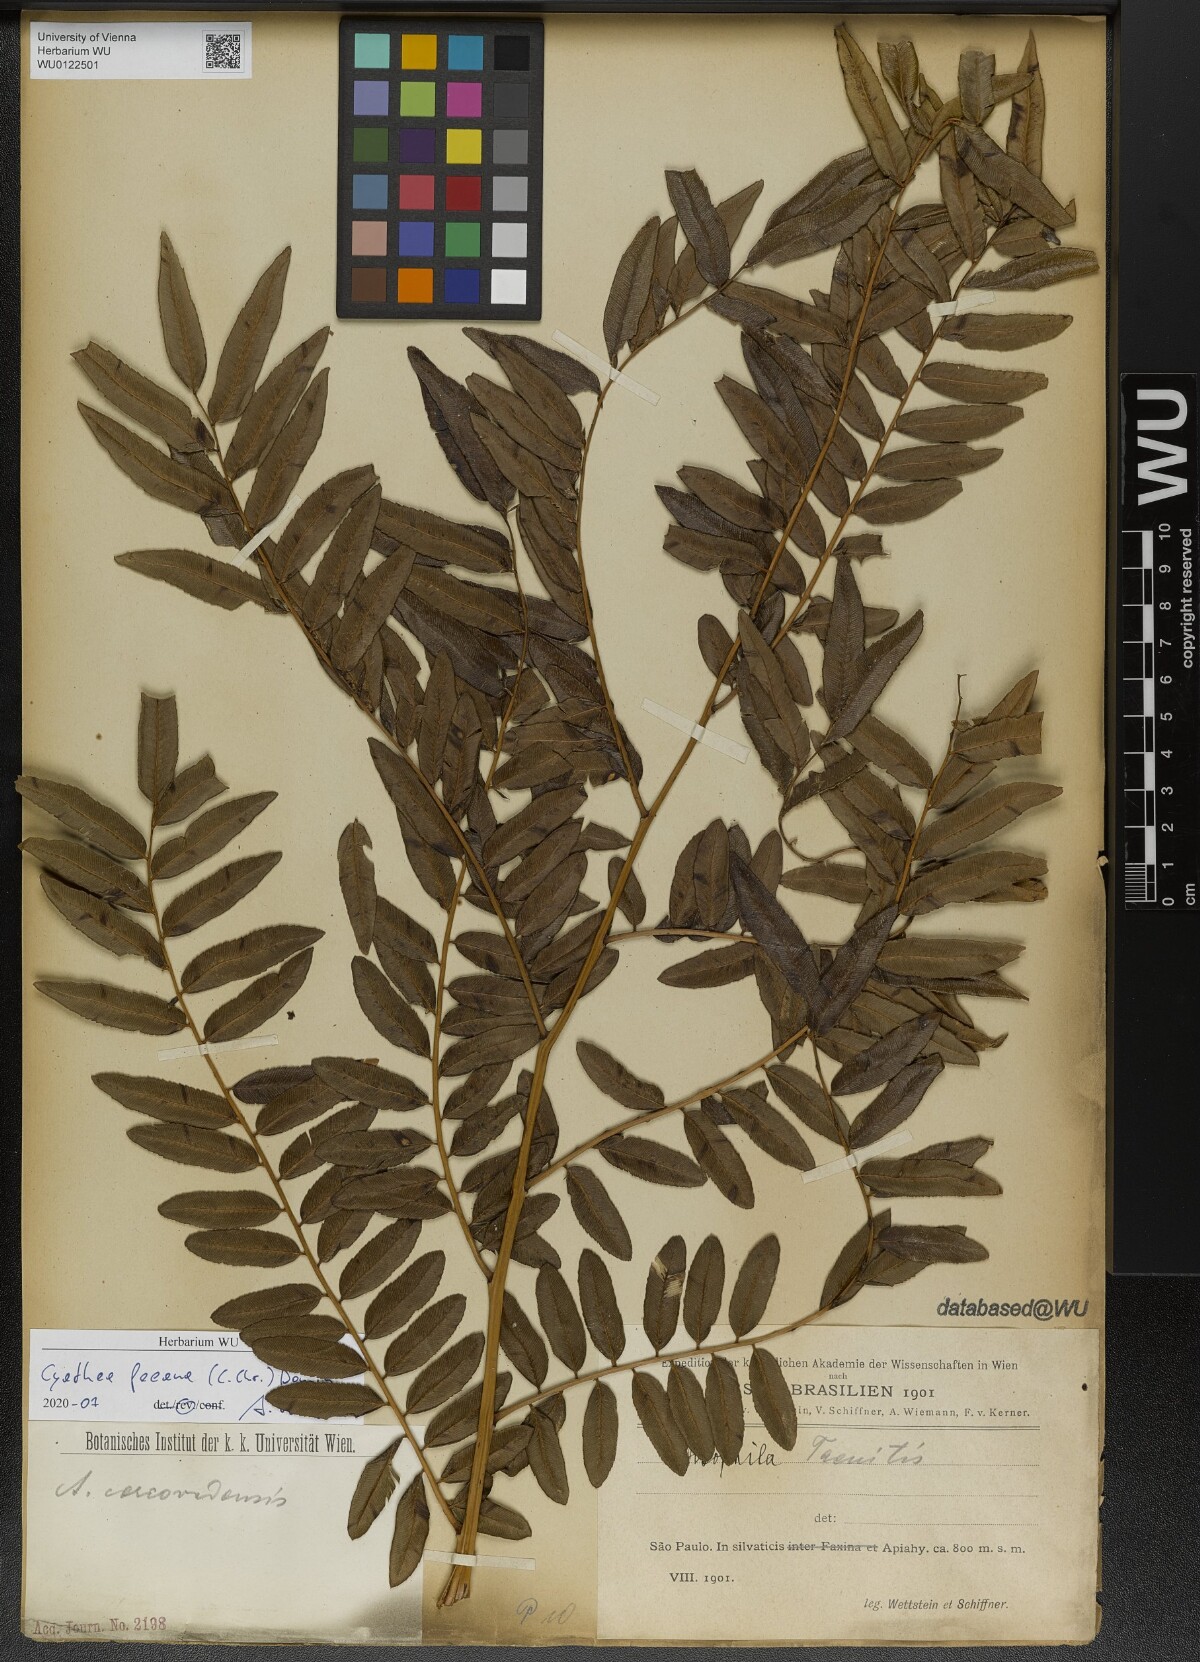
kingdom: Plantae
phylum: Tracheophyta
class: Polypodiopsida
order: Cyatheales
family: Cyatheaceae
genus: Cyathea
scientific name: Cyathea feeana
